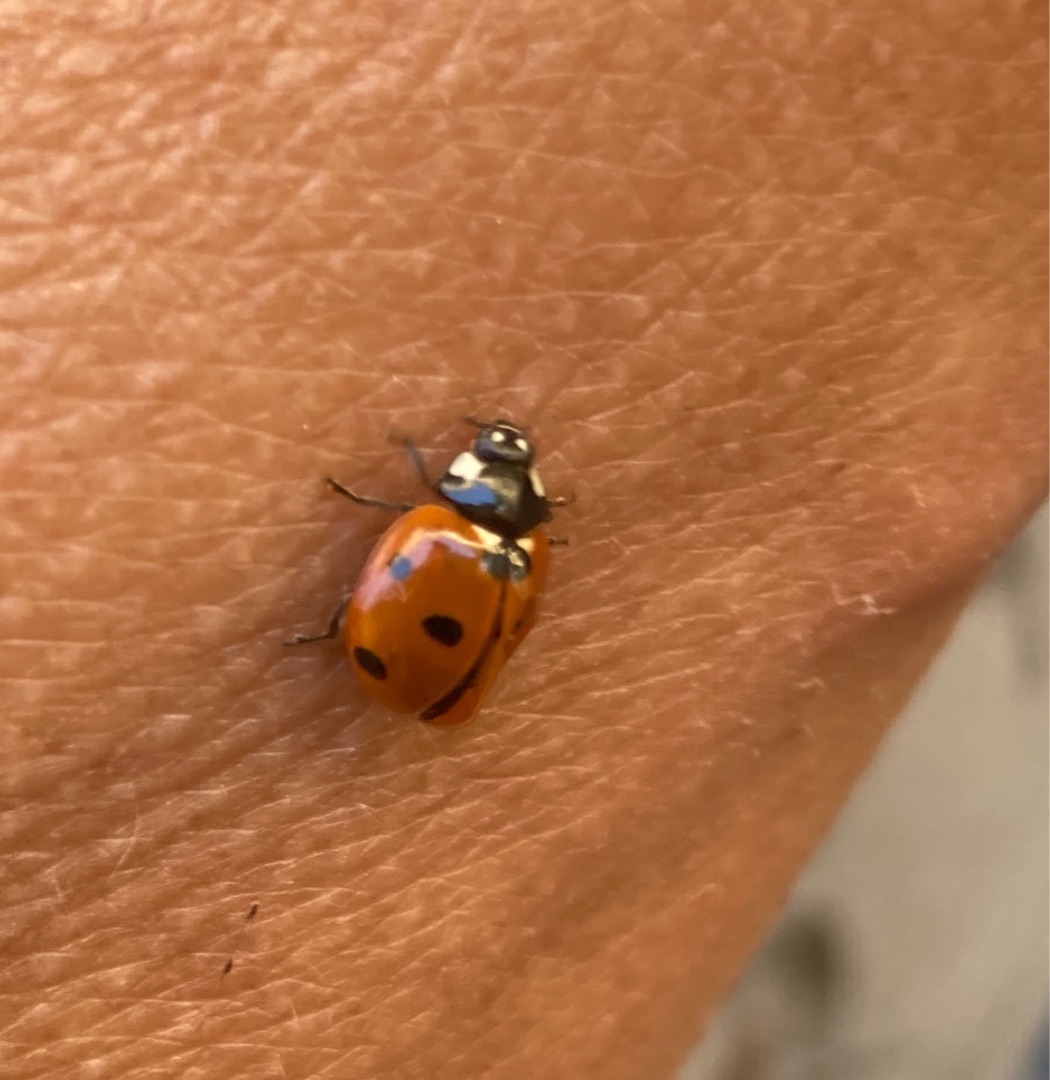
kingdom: Animalia
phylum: Arthropoda
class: Insecta
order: Coleoptera
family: Coccinellidae
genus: Coccinella
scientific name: Coccinella septempunctata
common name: Syvplettet mariehøne
